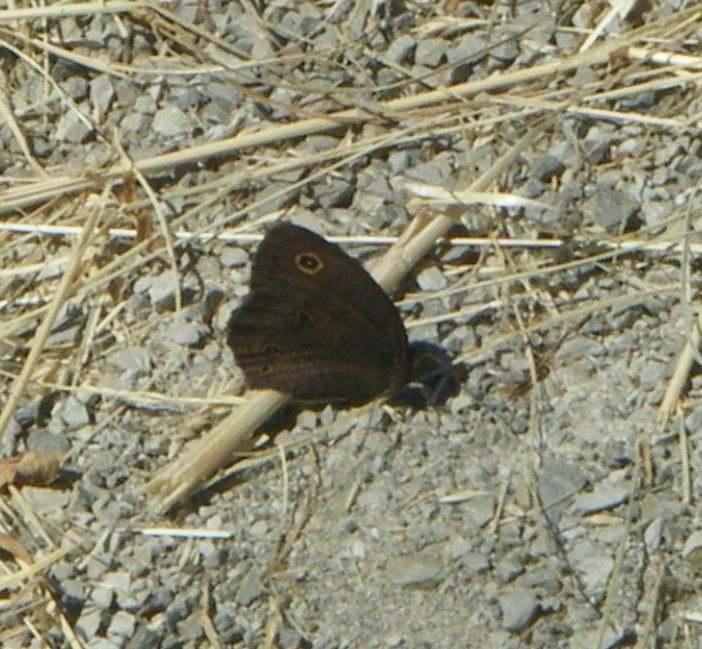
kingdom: Animalia
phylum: Arthropoda
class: Insecta
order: Lepidoptera
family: Nymphalidae
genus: Cercyonis
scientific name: Cercyonis pegala
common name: Common Wood-Nymph
